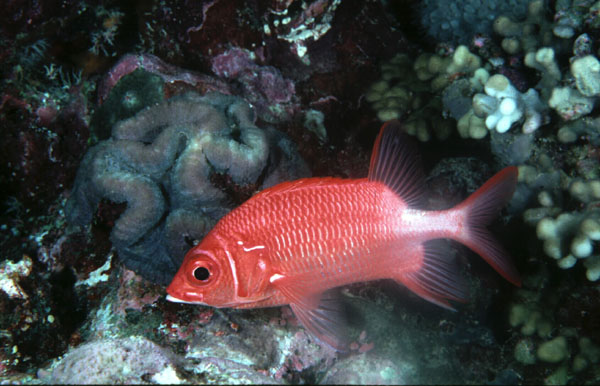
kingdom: Animalia
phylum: Chordata
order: Beryciformes
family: Holocentridae
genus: Sargocentron
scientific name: Sargocentron caudimaculatum
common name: Fanfin soldier
